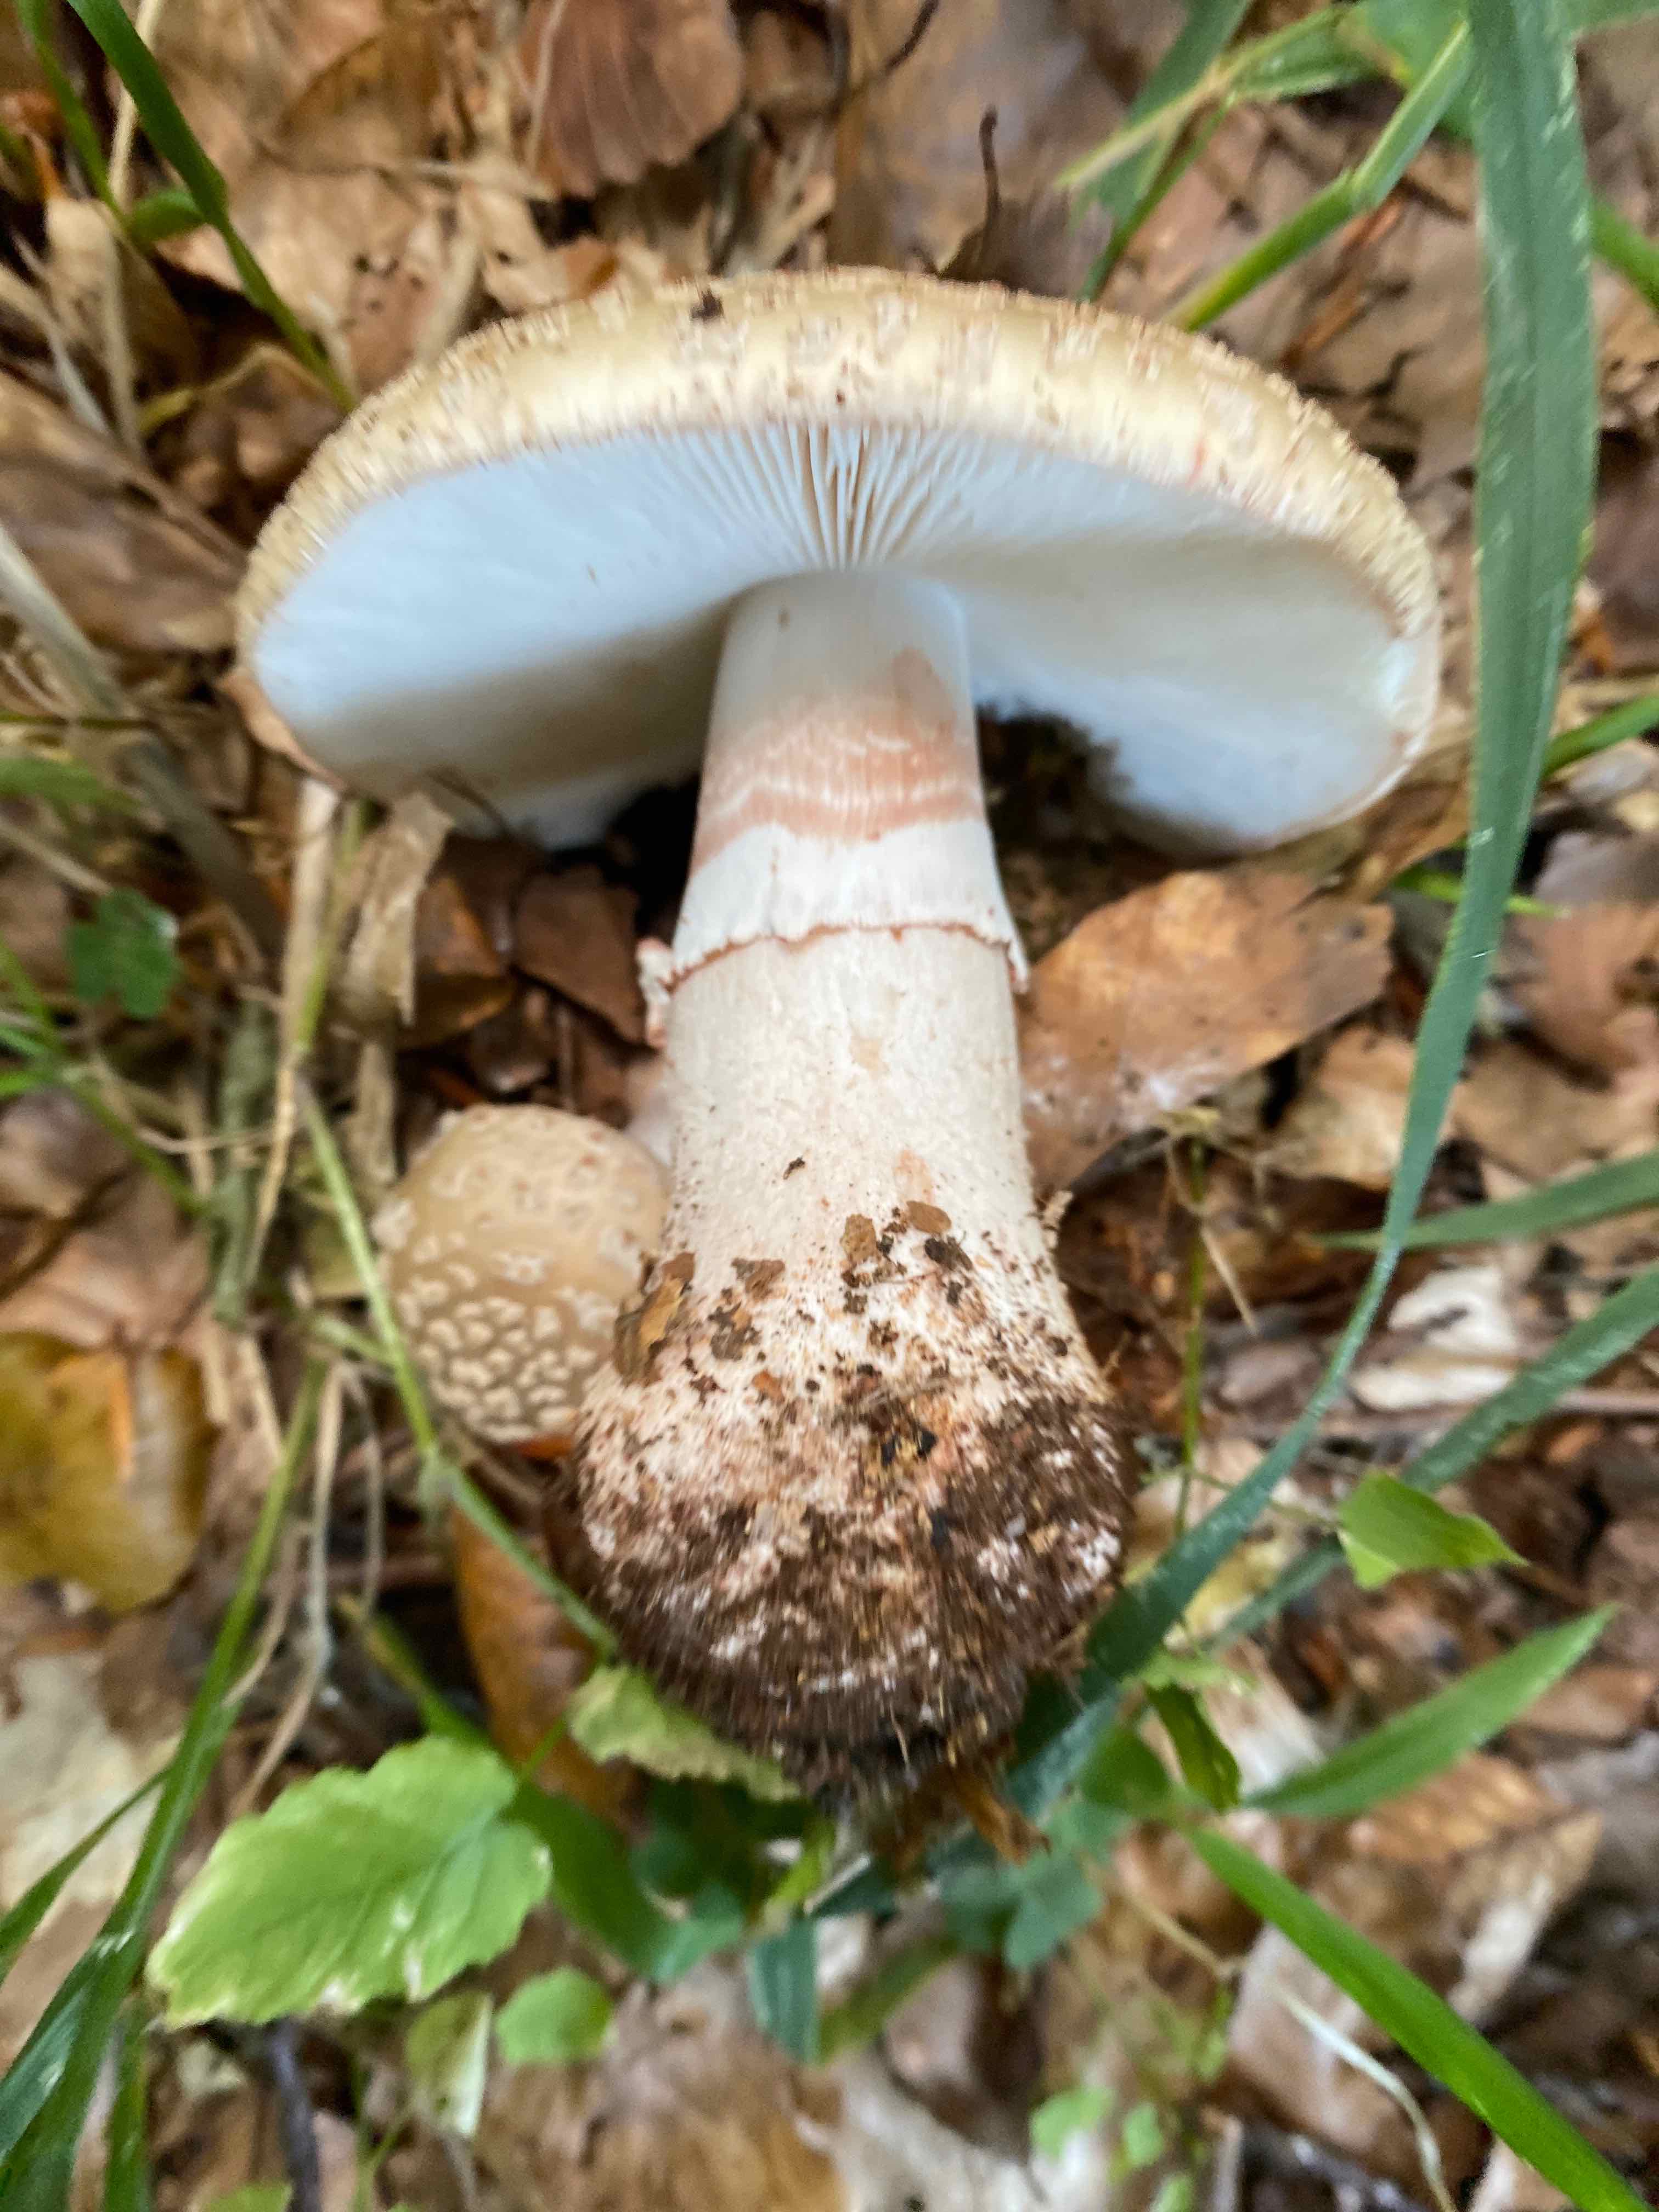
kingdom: Fungi
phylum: Basidiomycota
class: Agaricomycetes
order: Agaricales
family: Amanitaceae
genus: Amanita
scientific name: Amanita rubescens
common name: rødmende fluesvamp
